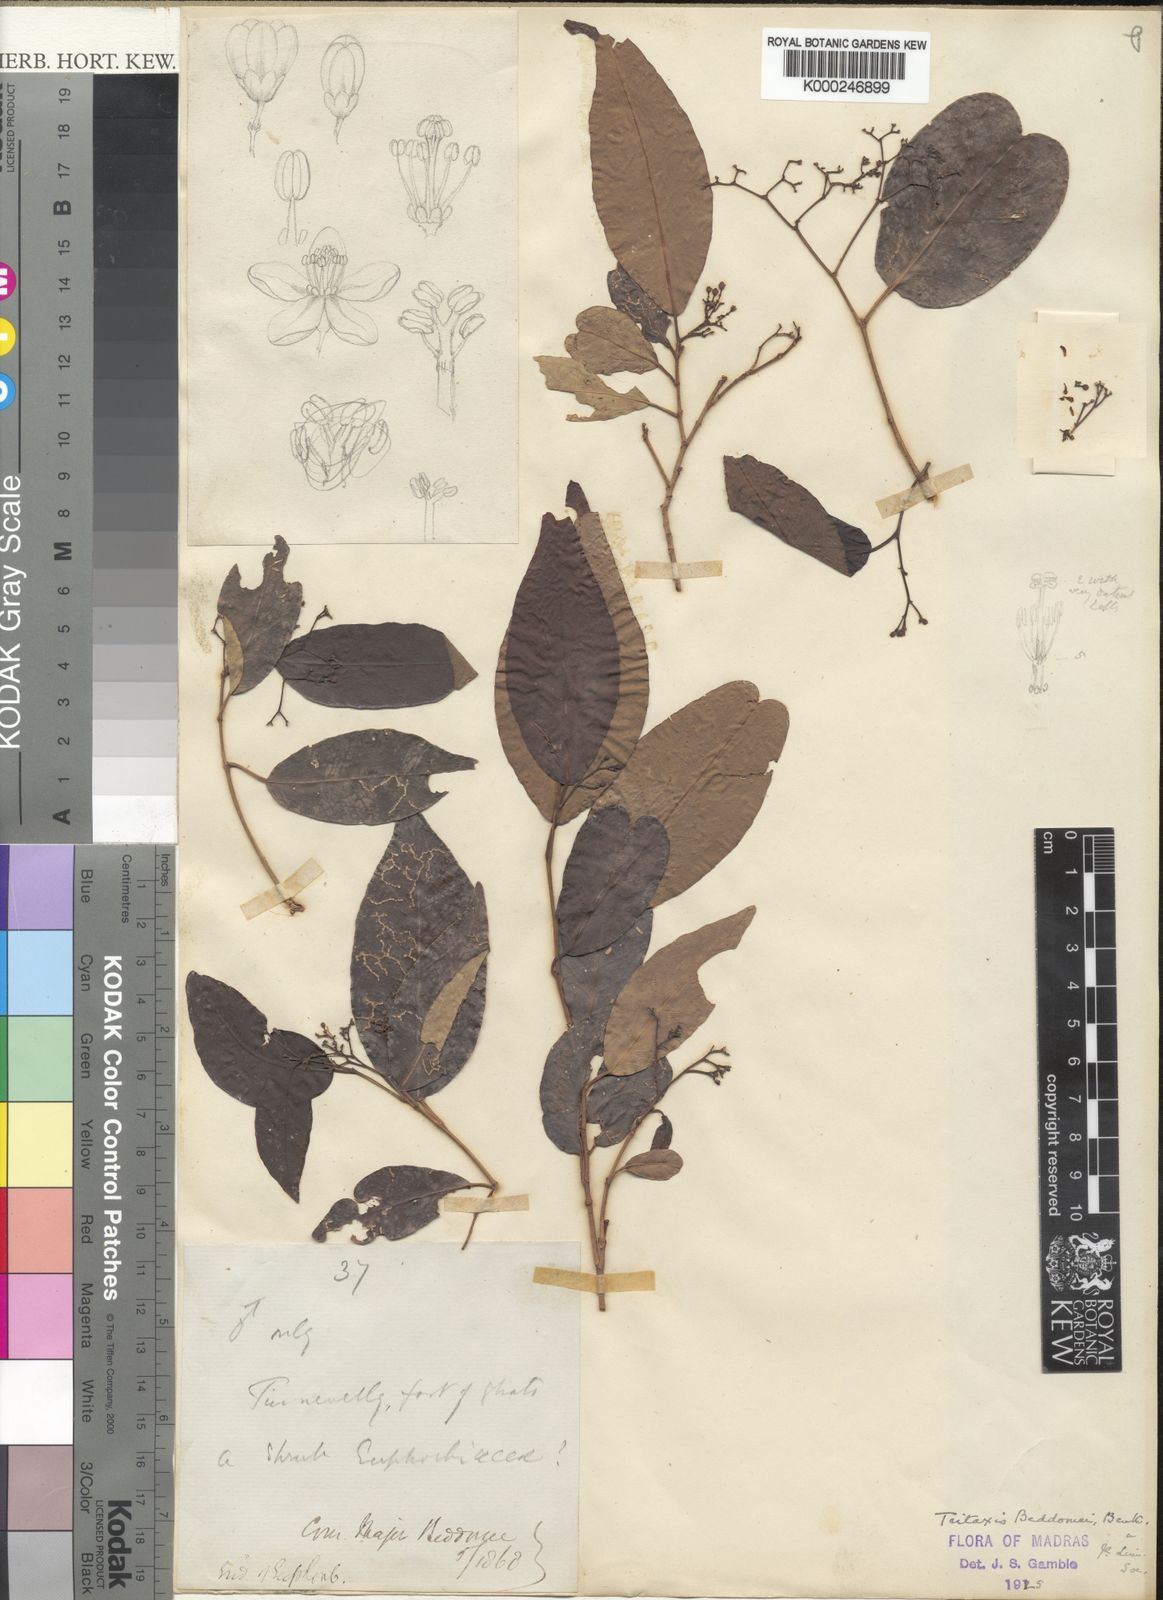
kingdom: Plantae
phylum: Tracheophyta
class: Magnoliopsida
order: Malpighiales
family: Euphorbiaceae
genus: Tritaxis
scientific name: Tritaxis beddomei
